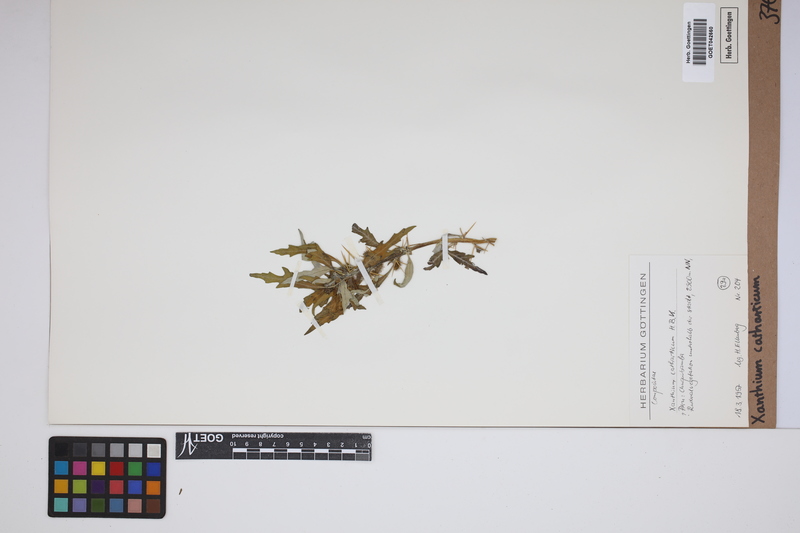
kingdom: Plantae
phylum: Tracheophyta
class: Magnoliopsida
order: Asterales
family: Asteraceae
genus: Xanthium
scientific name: Xanthium spinosum
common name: Spiny cocklebur
